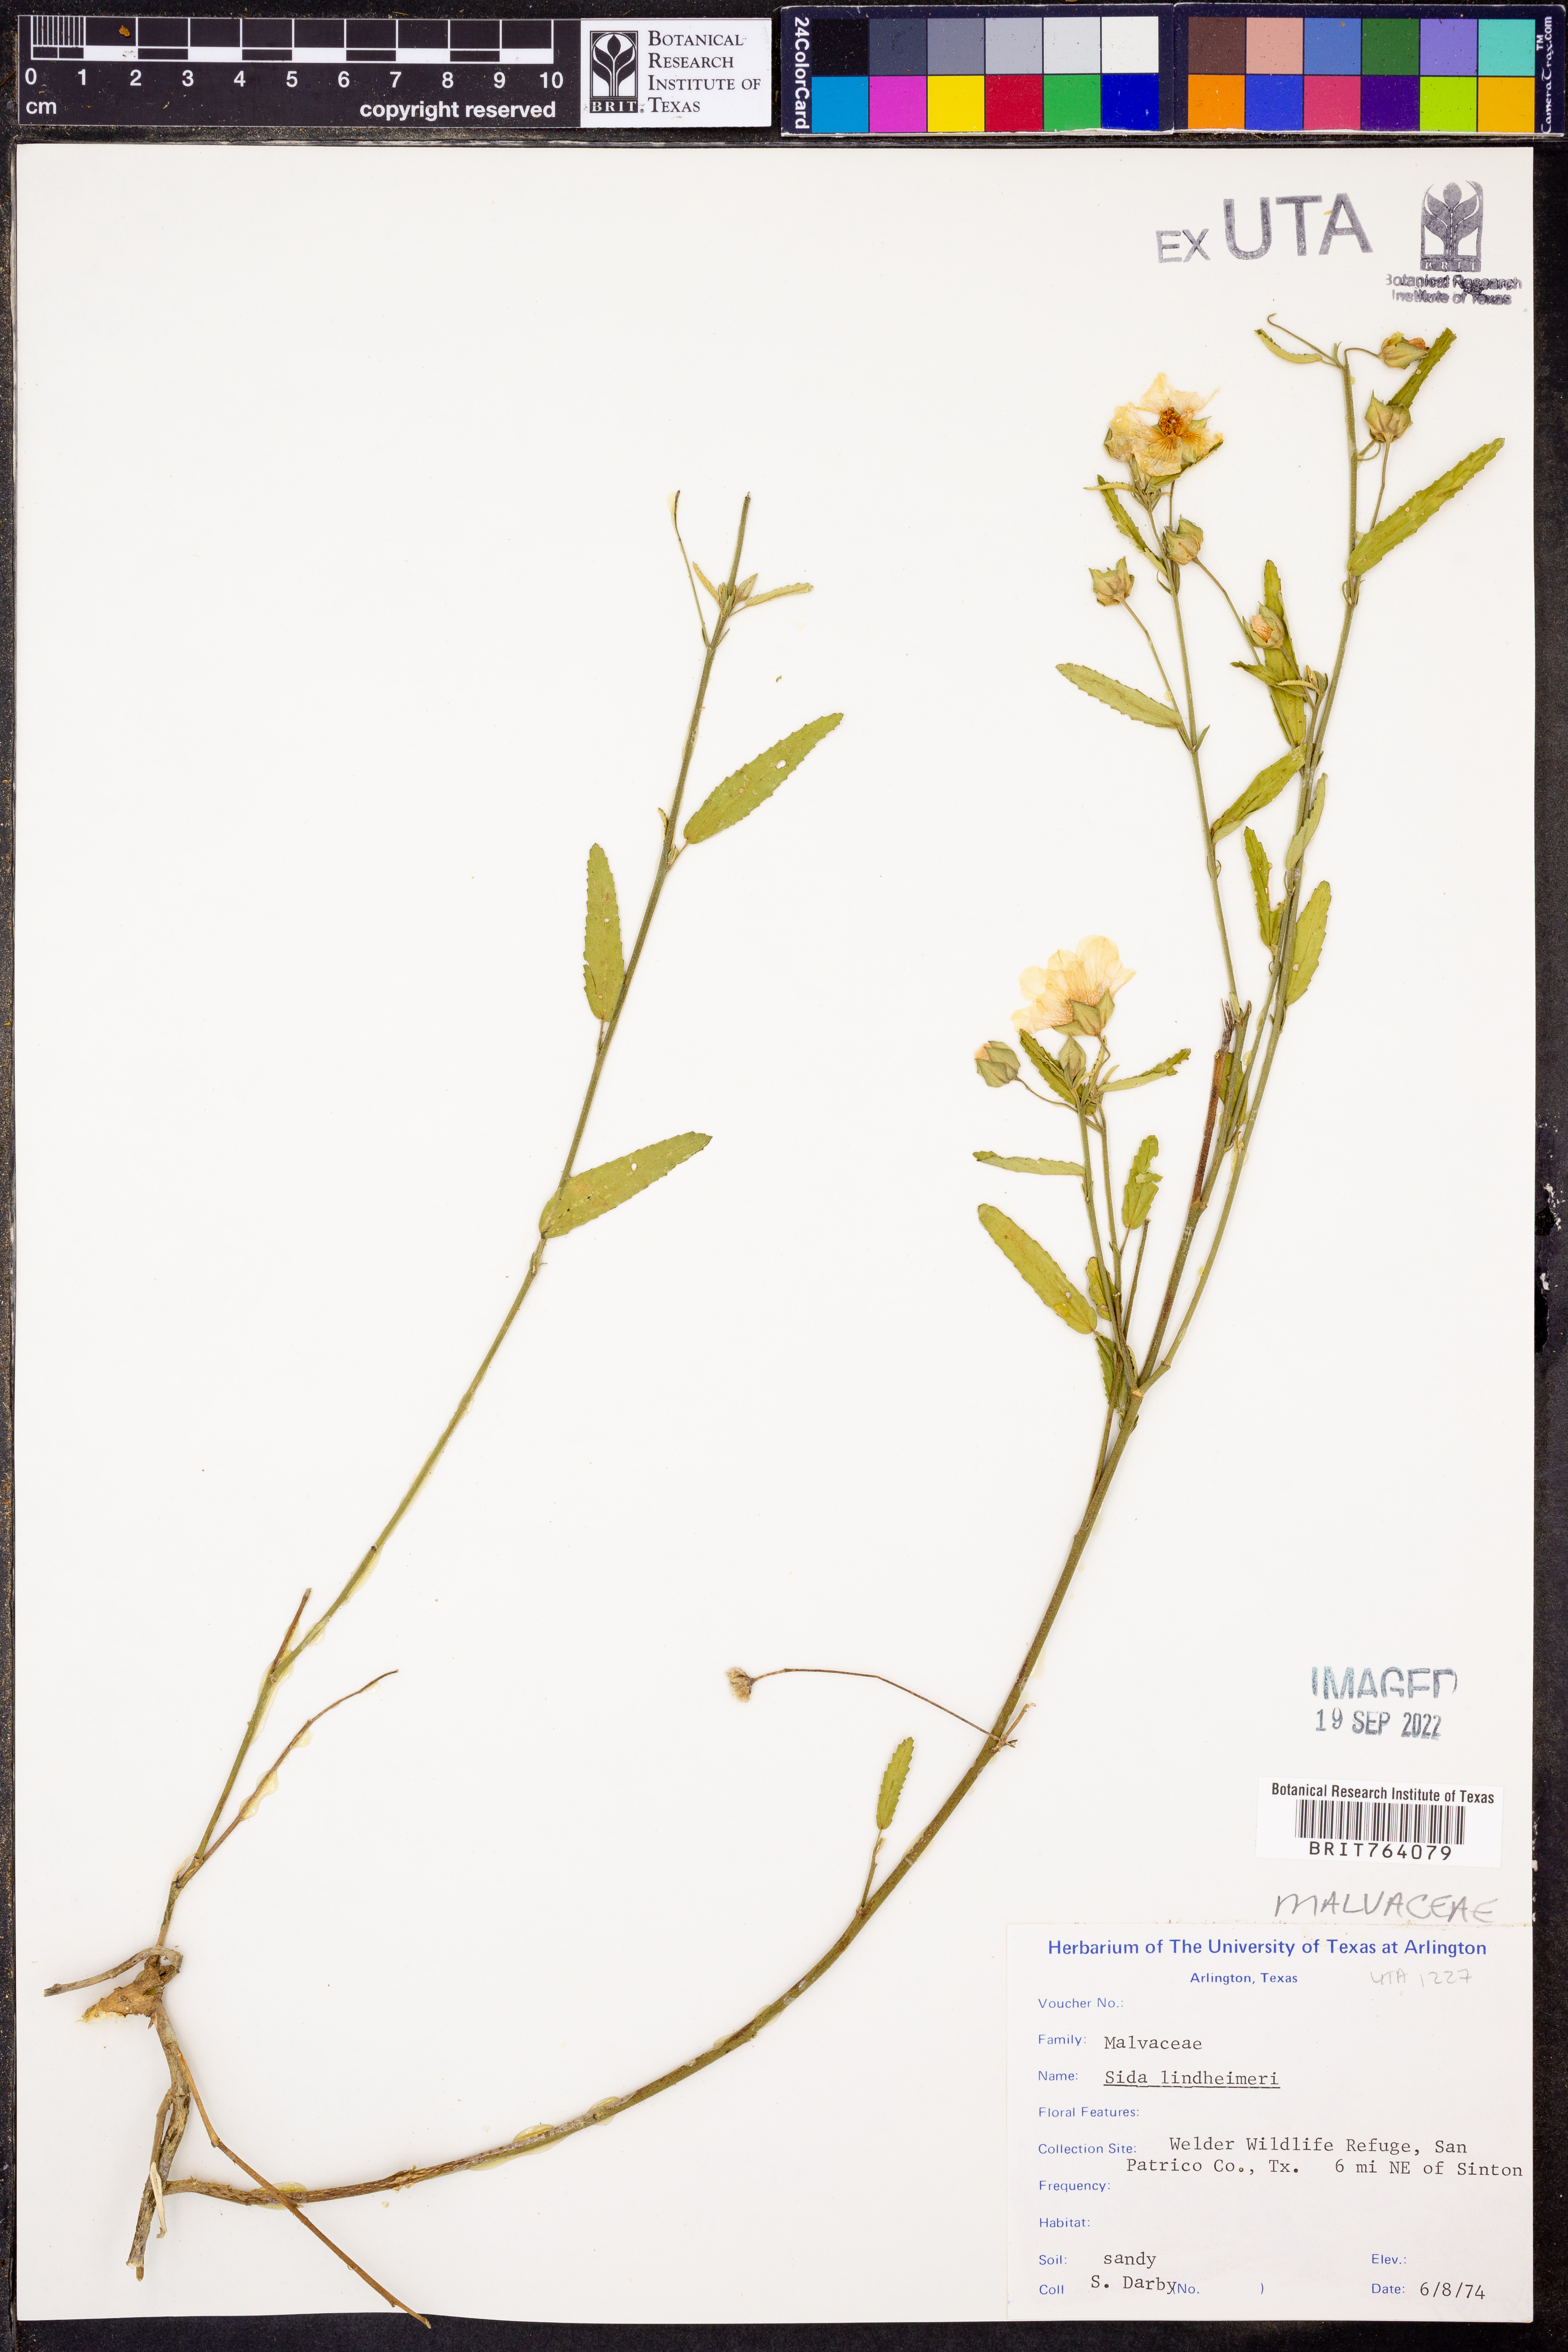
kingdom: Plantae
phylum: Tracheophyta
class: Magnoliopsida
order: Malvales
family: Malvaceae
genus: Sida
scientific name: Sida lindheimeri
